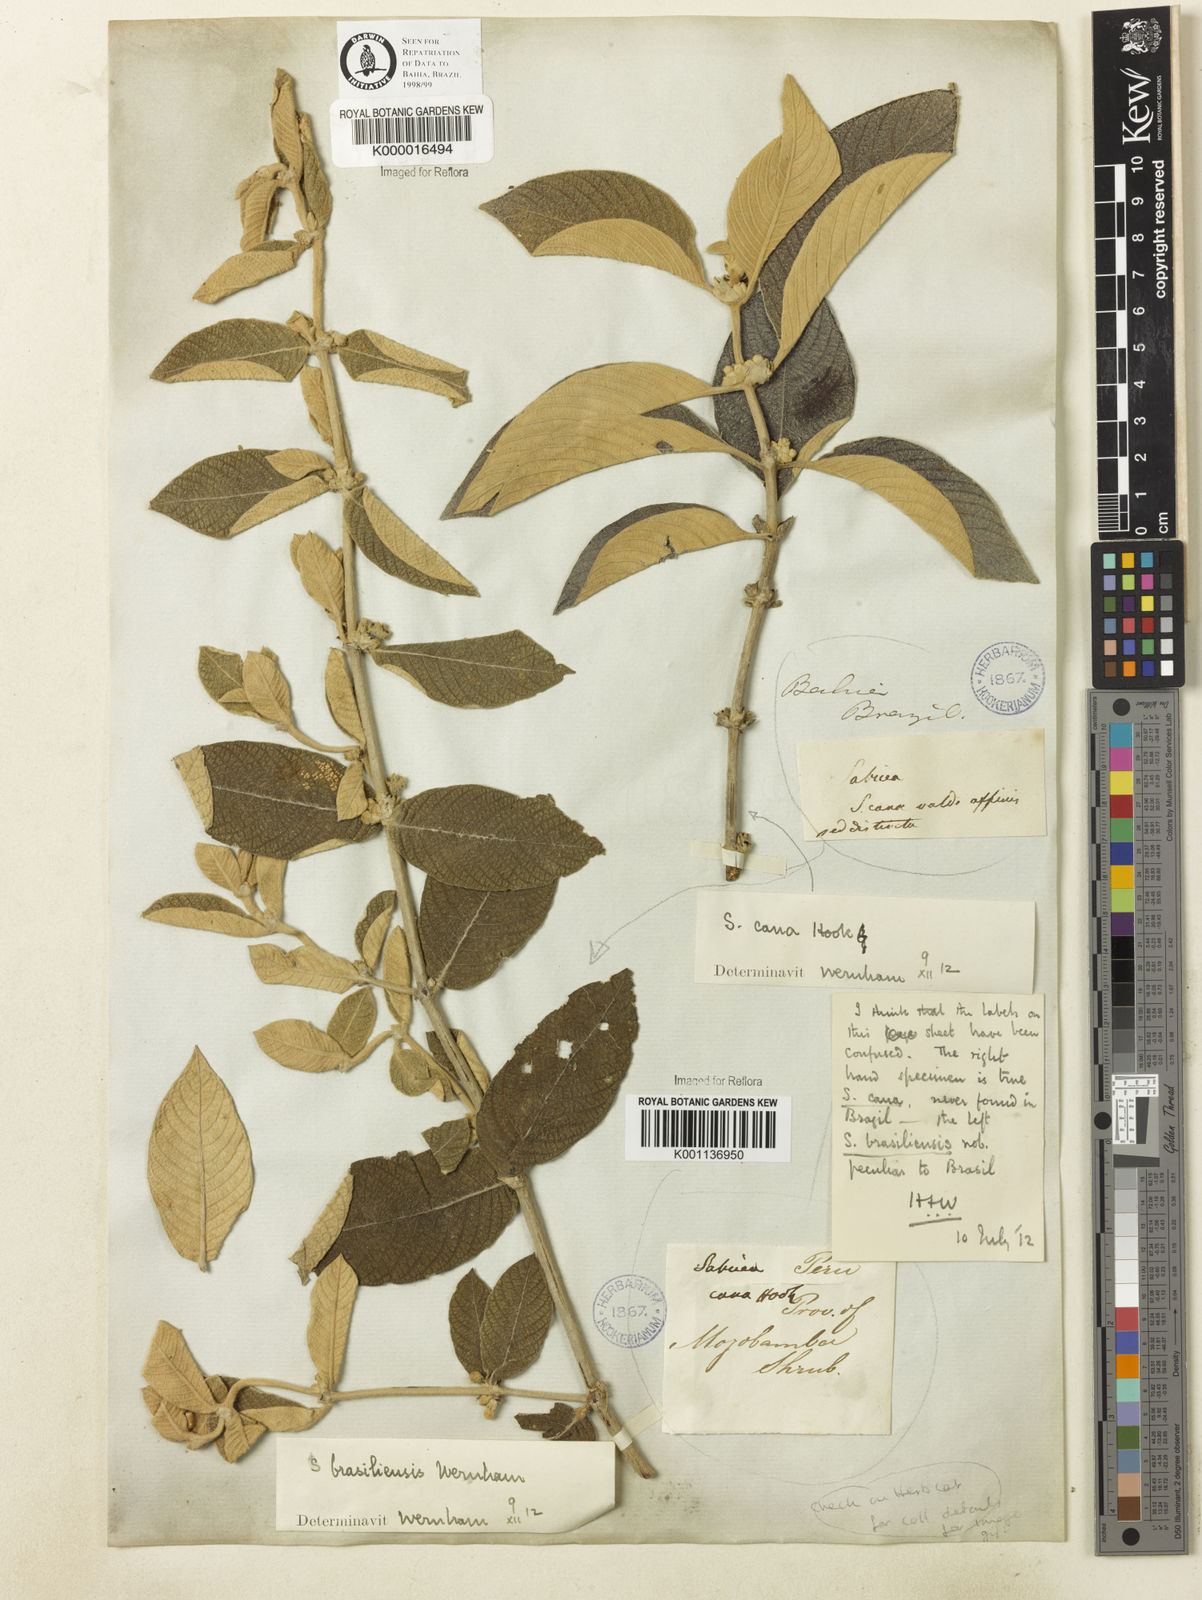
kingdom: Plantae
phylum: Tracheophyta
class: Magnoliopsida
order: Gentianales
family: Rubiaceae
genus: Sabicea
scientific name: Sabicea brasiliensis
